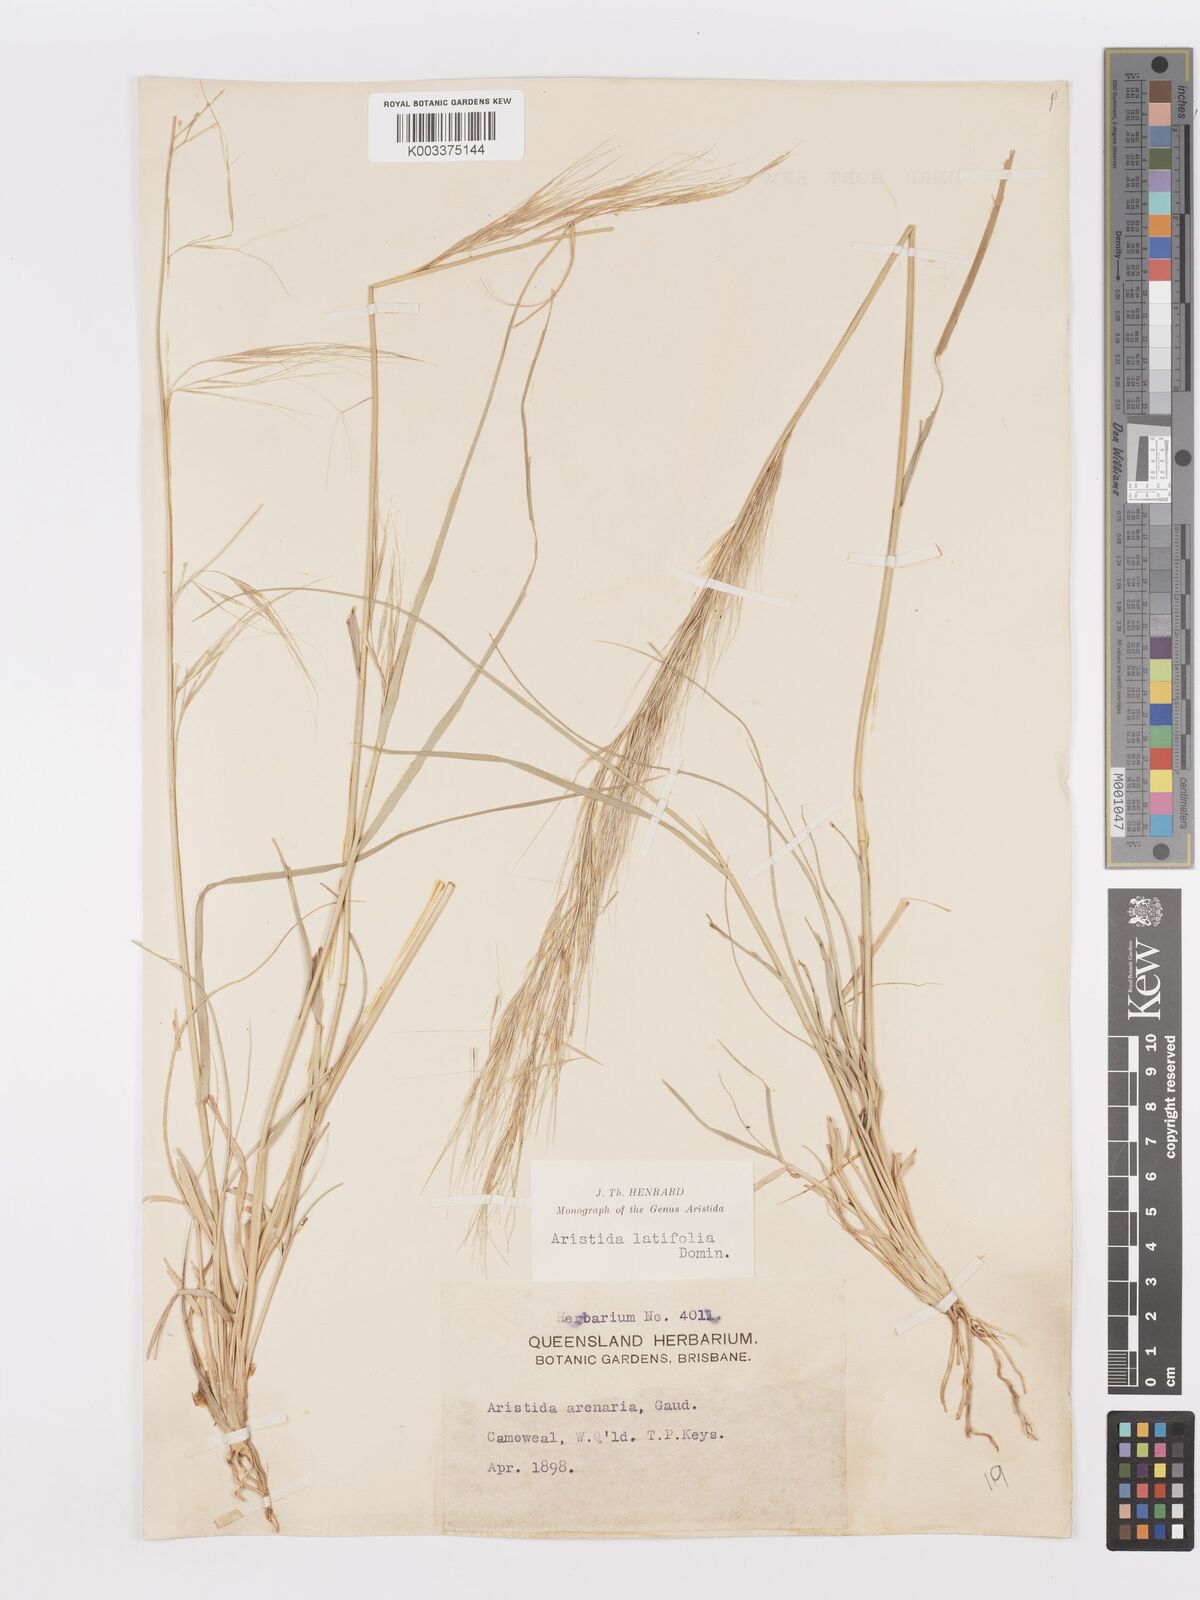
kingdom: Plantae
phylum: Tracheophyta
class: Liliopsida
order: Poales
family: Poaceae
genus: Aristida
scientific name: Aristida latifolia
